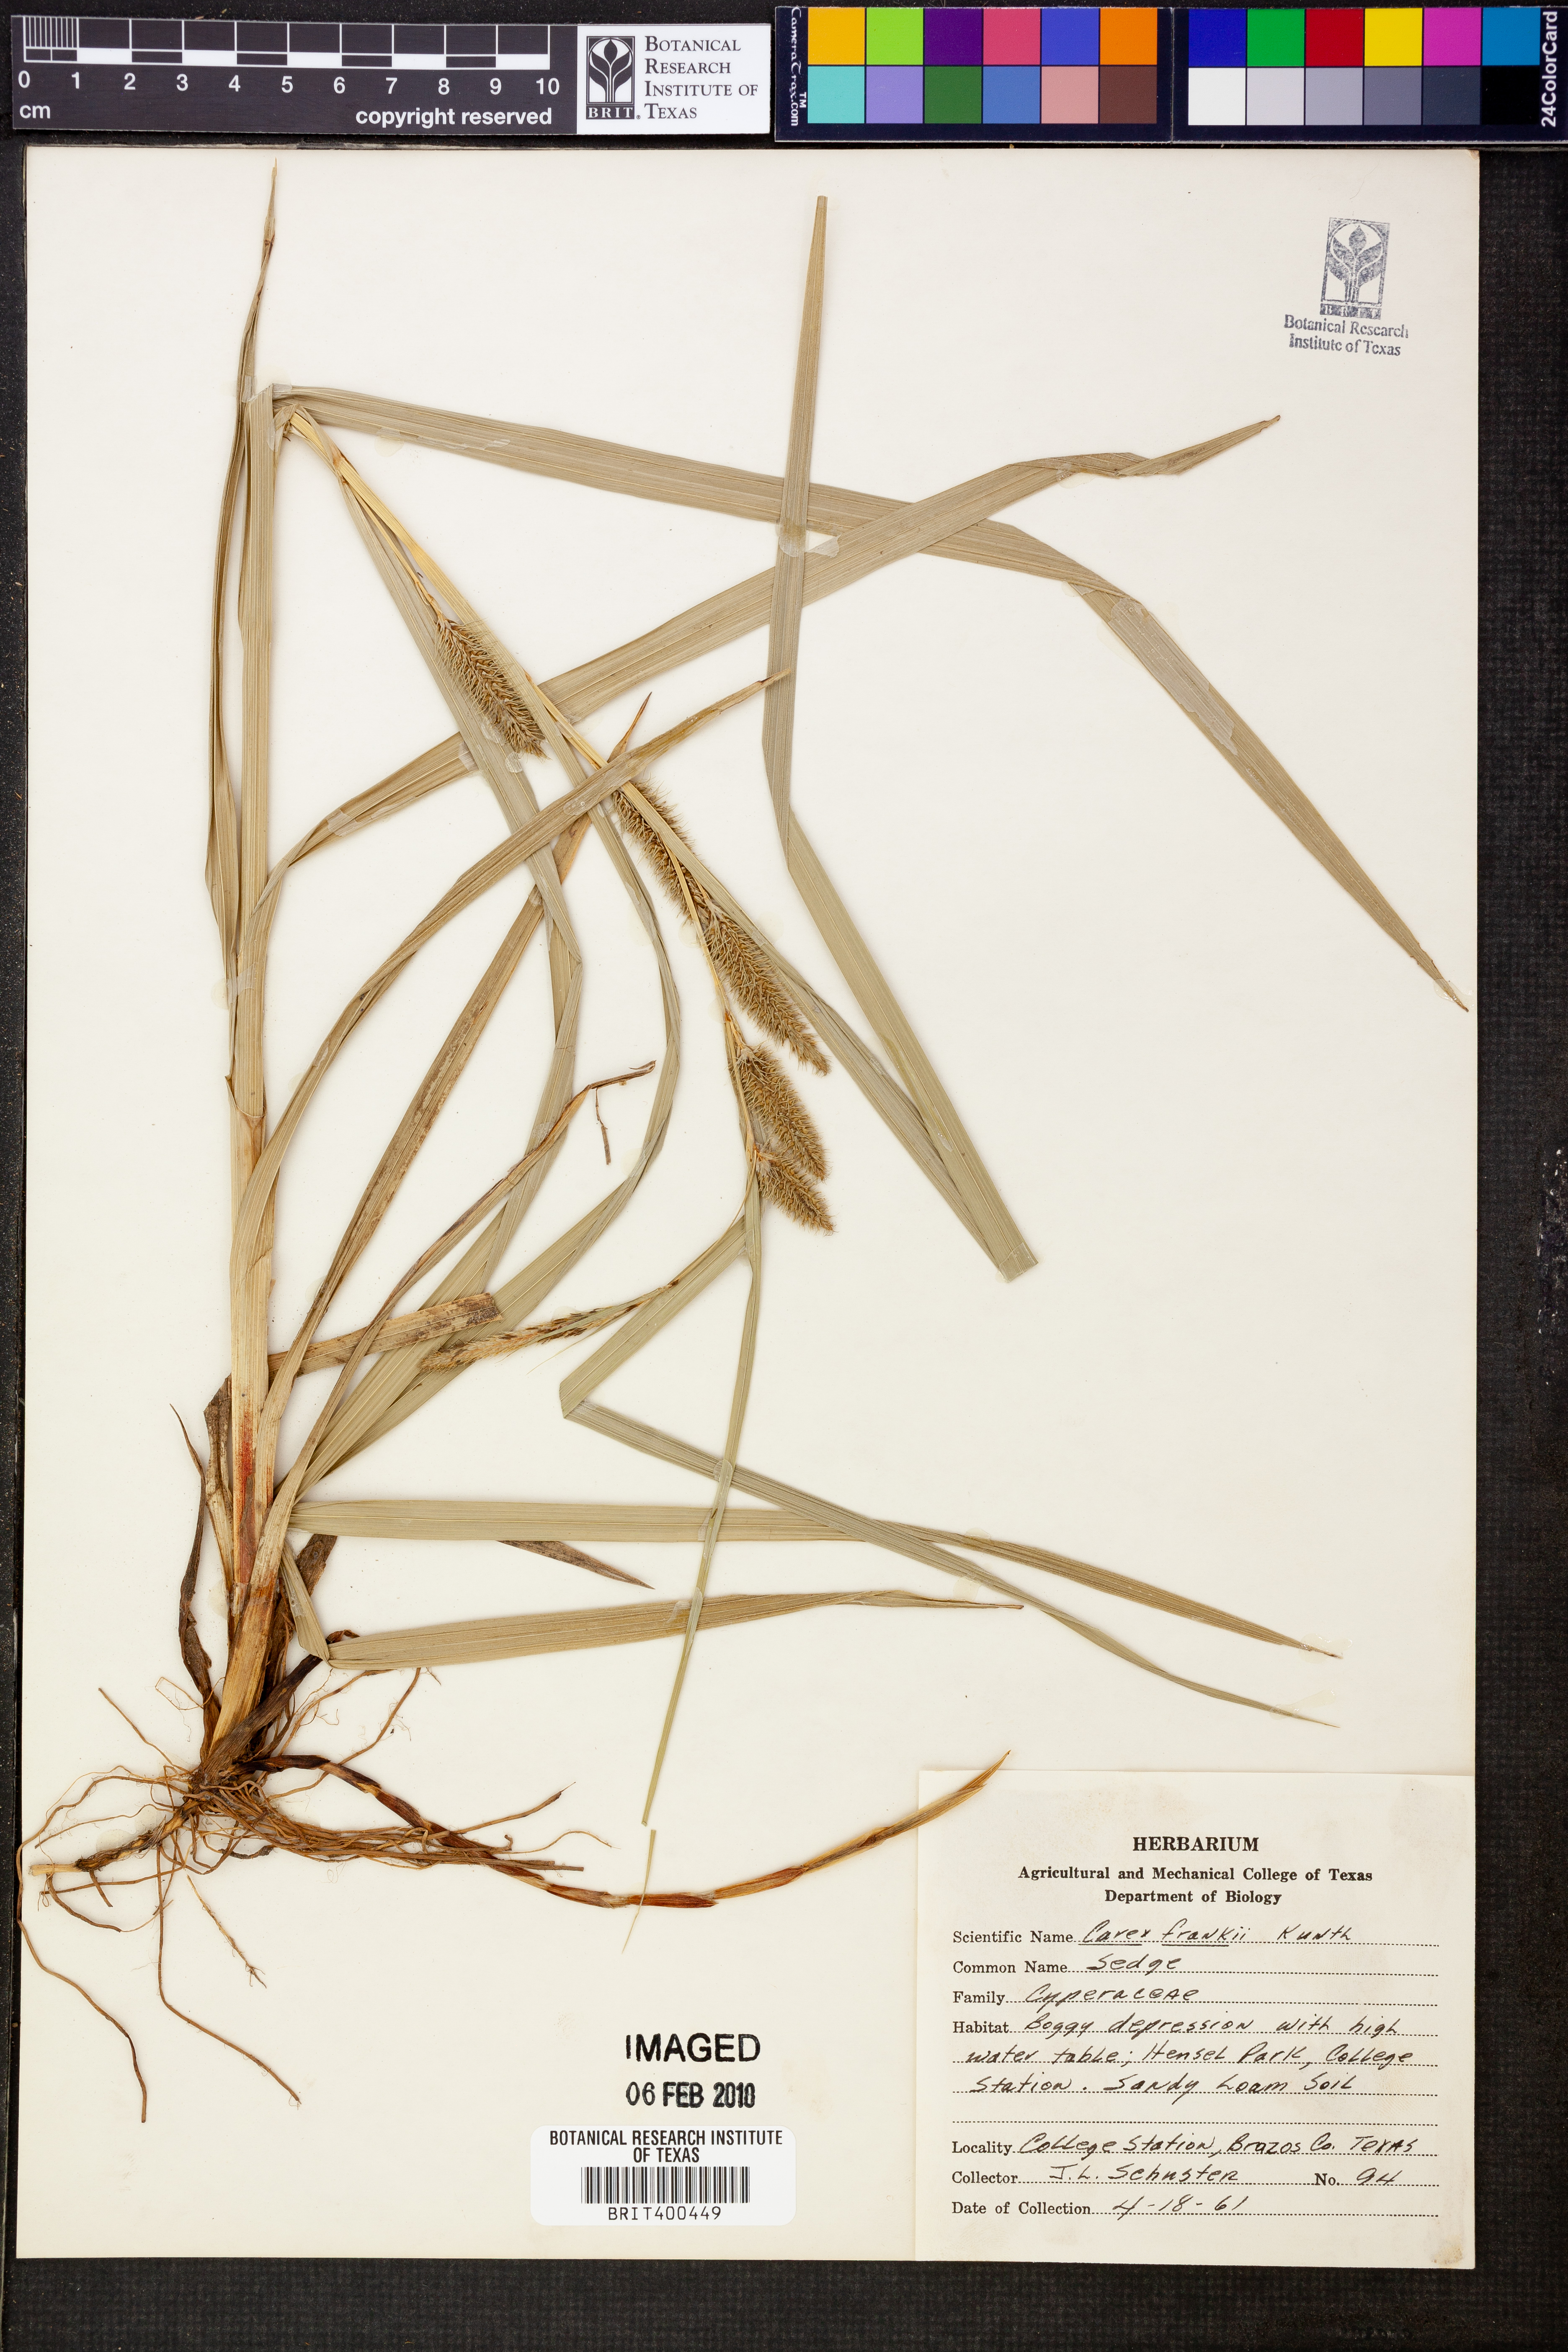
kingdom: Plantae
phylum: Tracheophyta
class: Liliopsida
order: Poales
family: Cyperaceae
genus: Carex
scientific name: Carex frankii
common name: Frank's sedge
